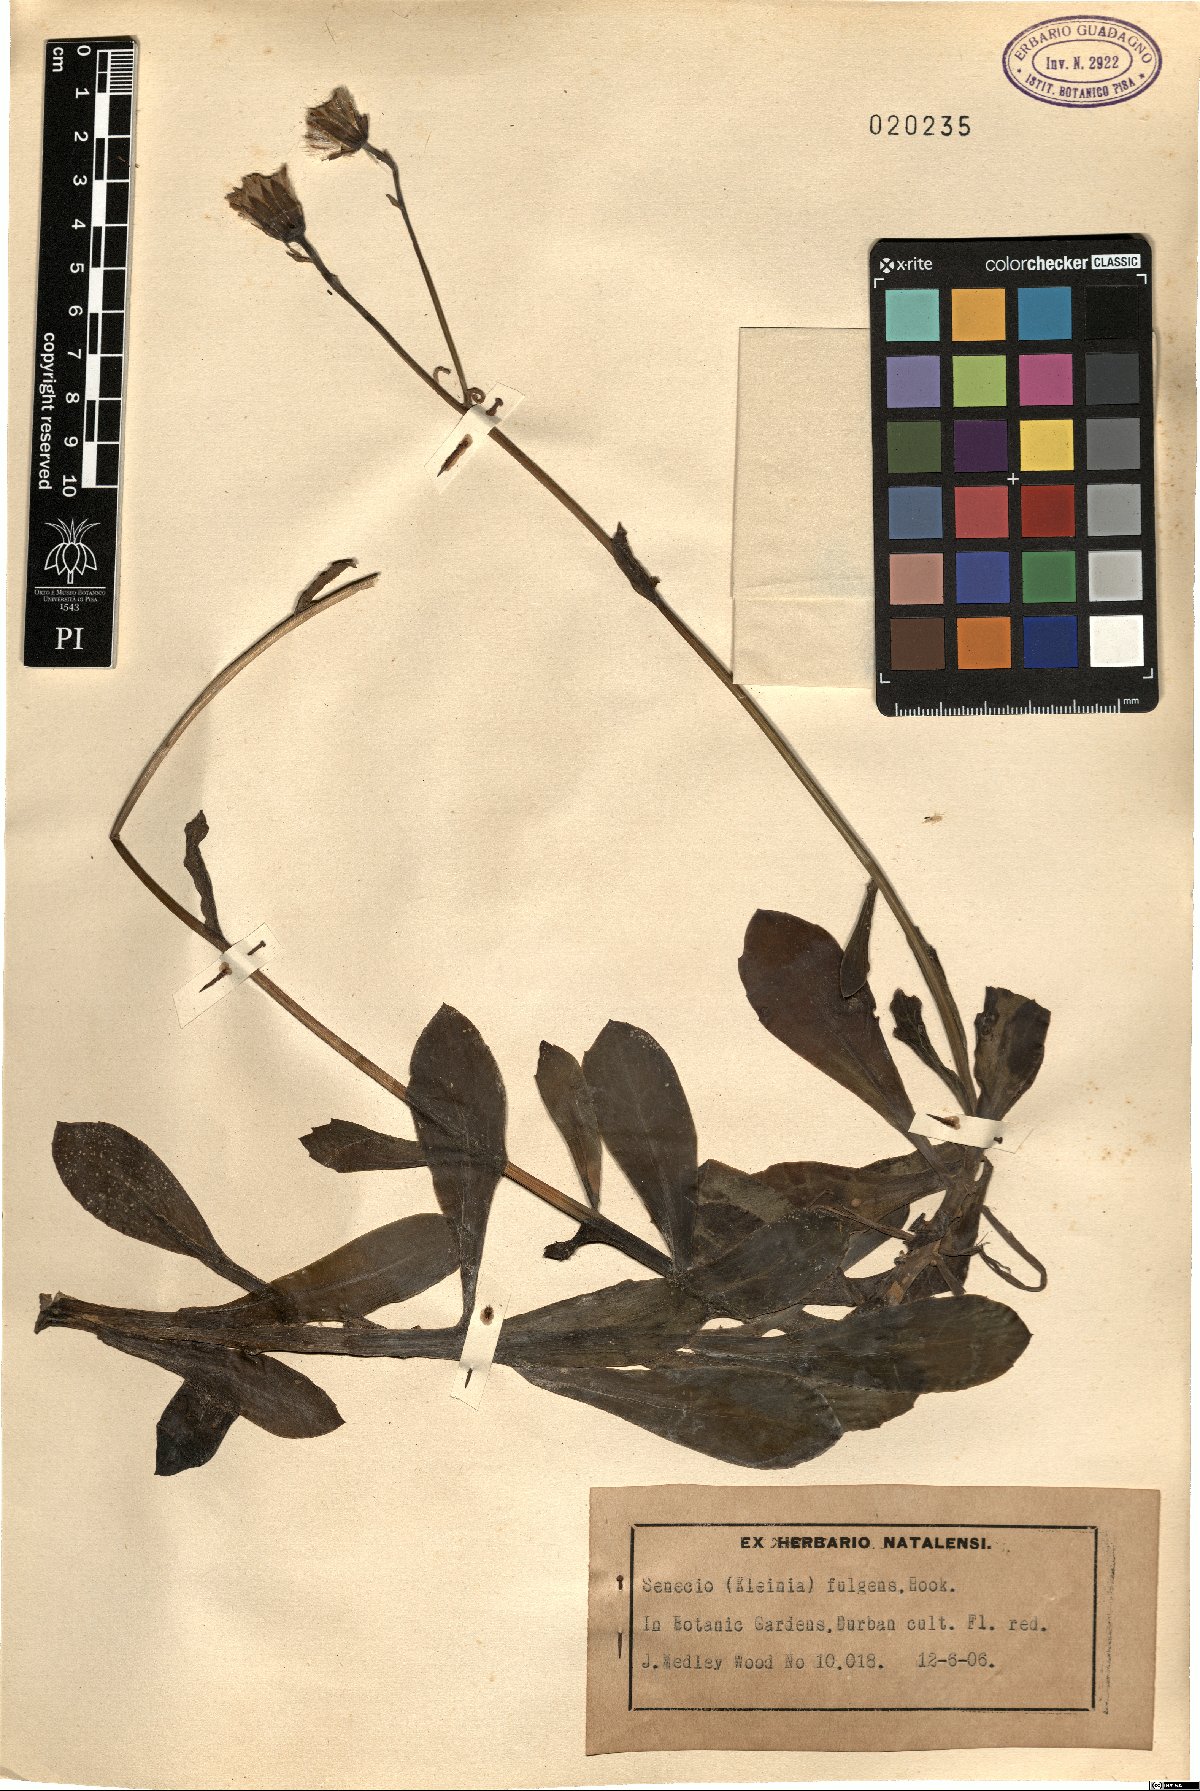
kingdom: Plantae
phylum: Tracheophyta
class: Magnoliopsida
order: Asterales
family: Asteraceae
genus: Kleinia
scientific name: Kleinia fulgens
